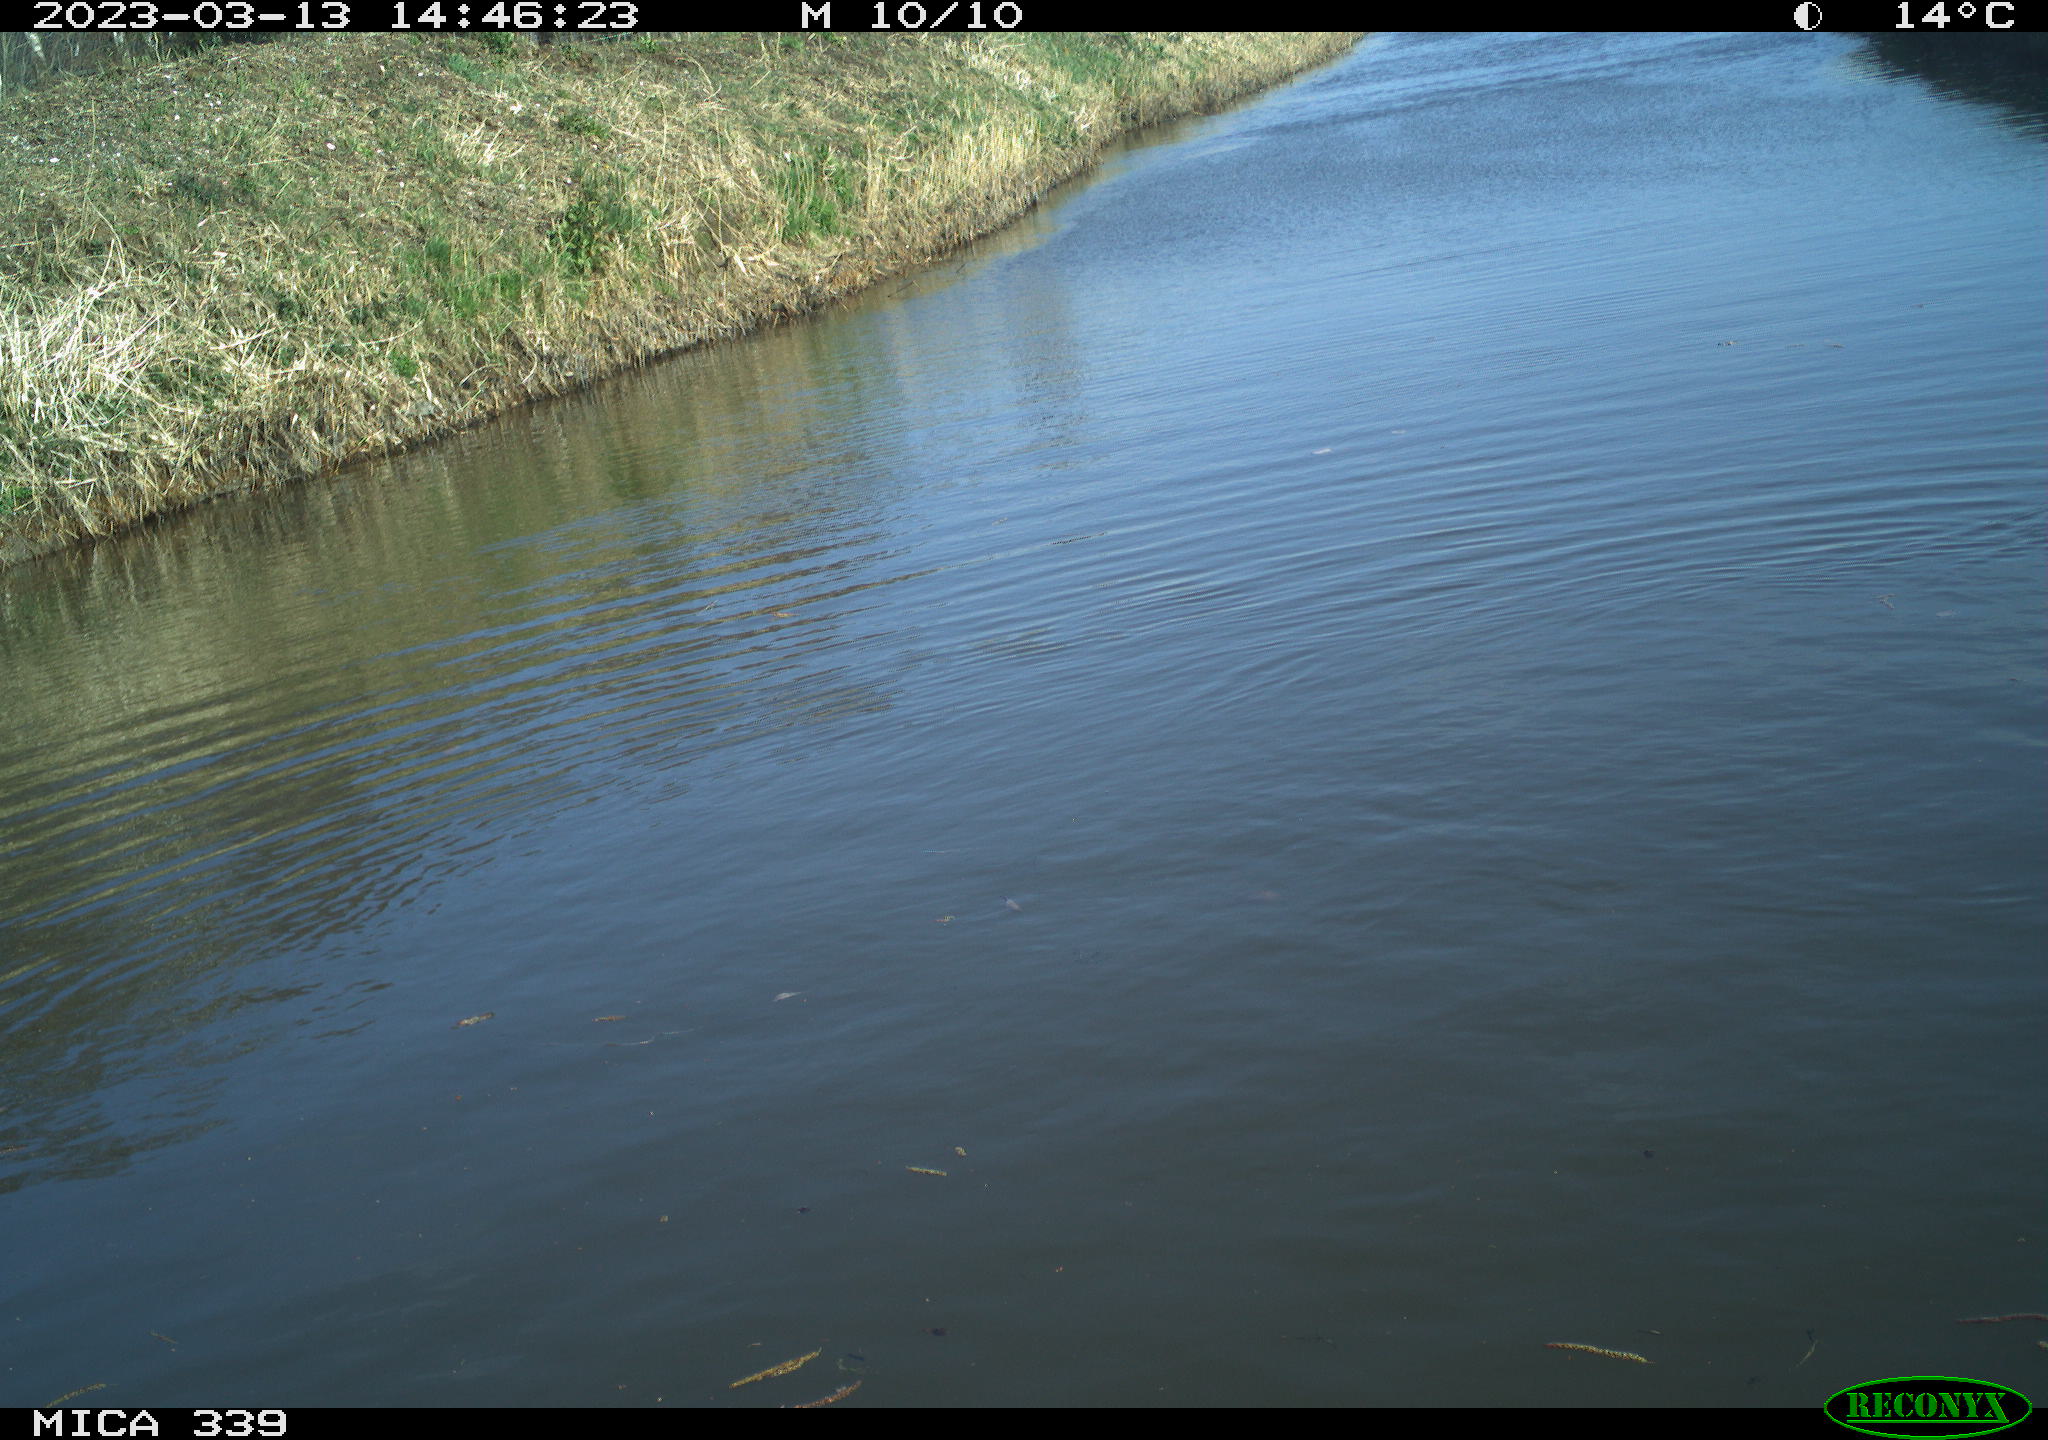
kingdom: Animalia
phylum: Chordata
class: Aves
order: Gruiformes
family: Rallidae
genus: Fulica
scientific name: Fulica atra
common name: Eurasian coot
